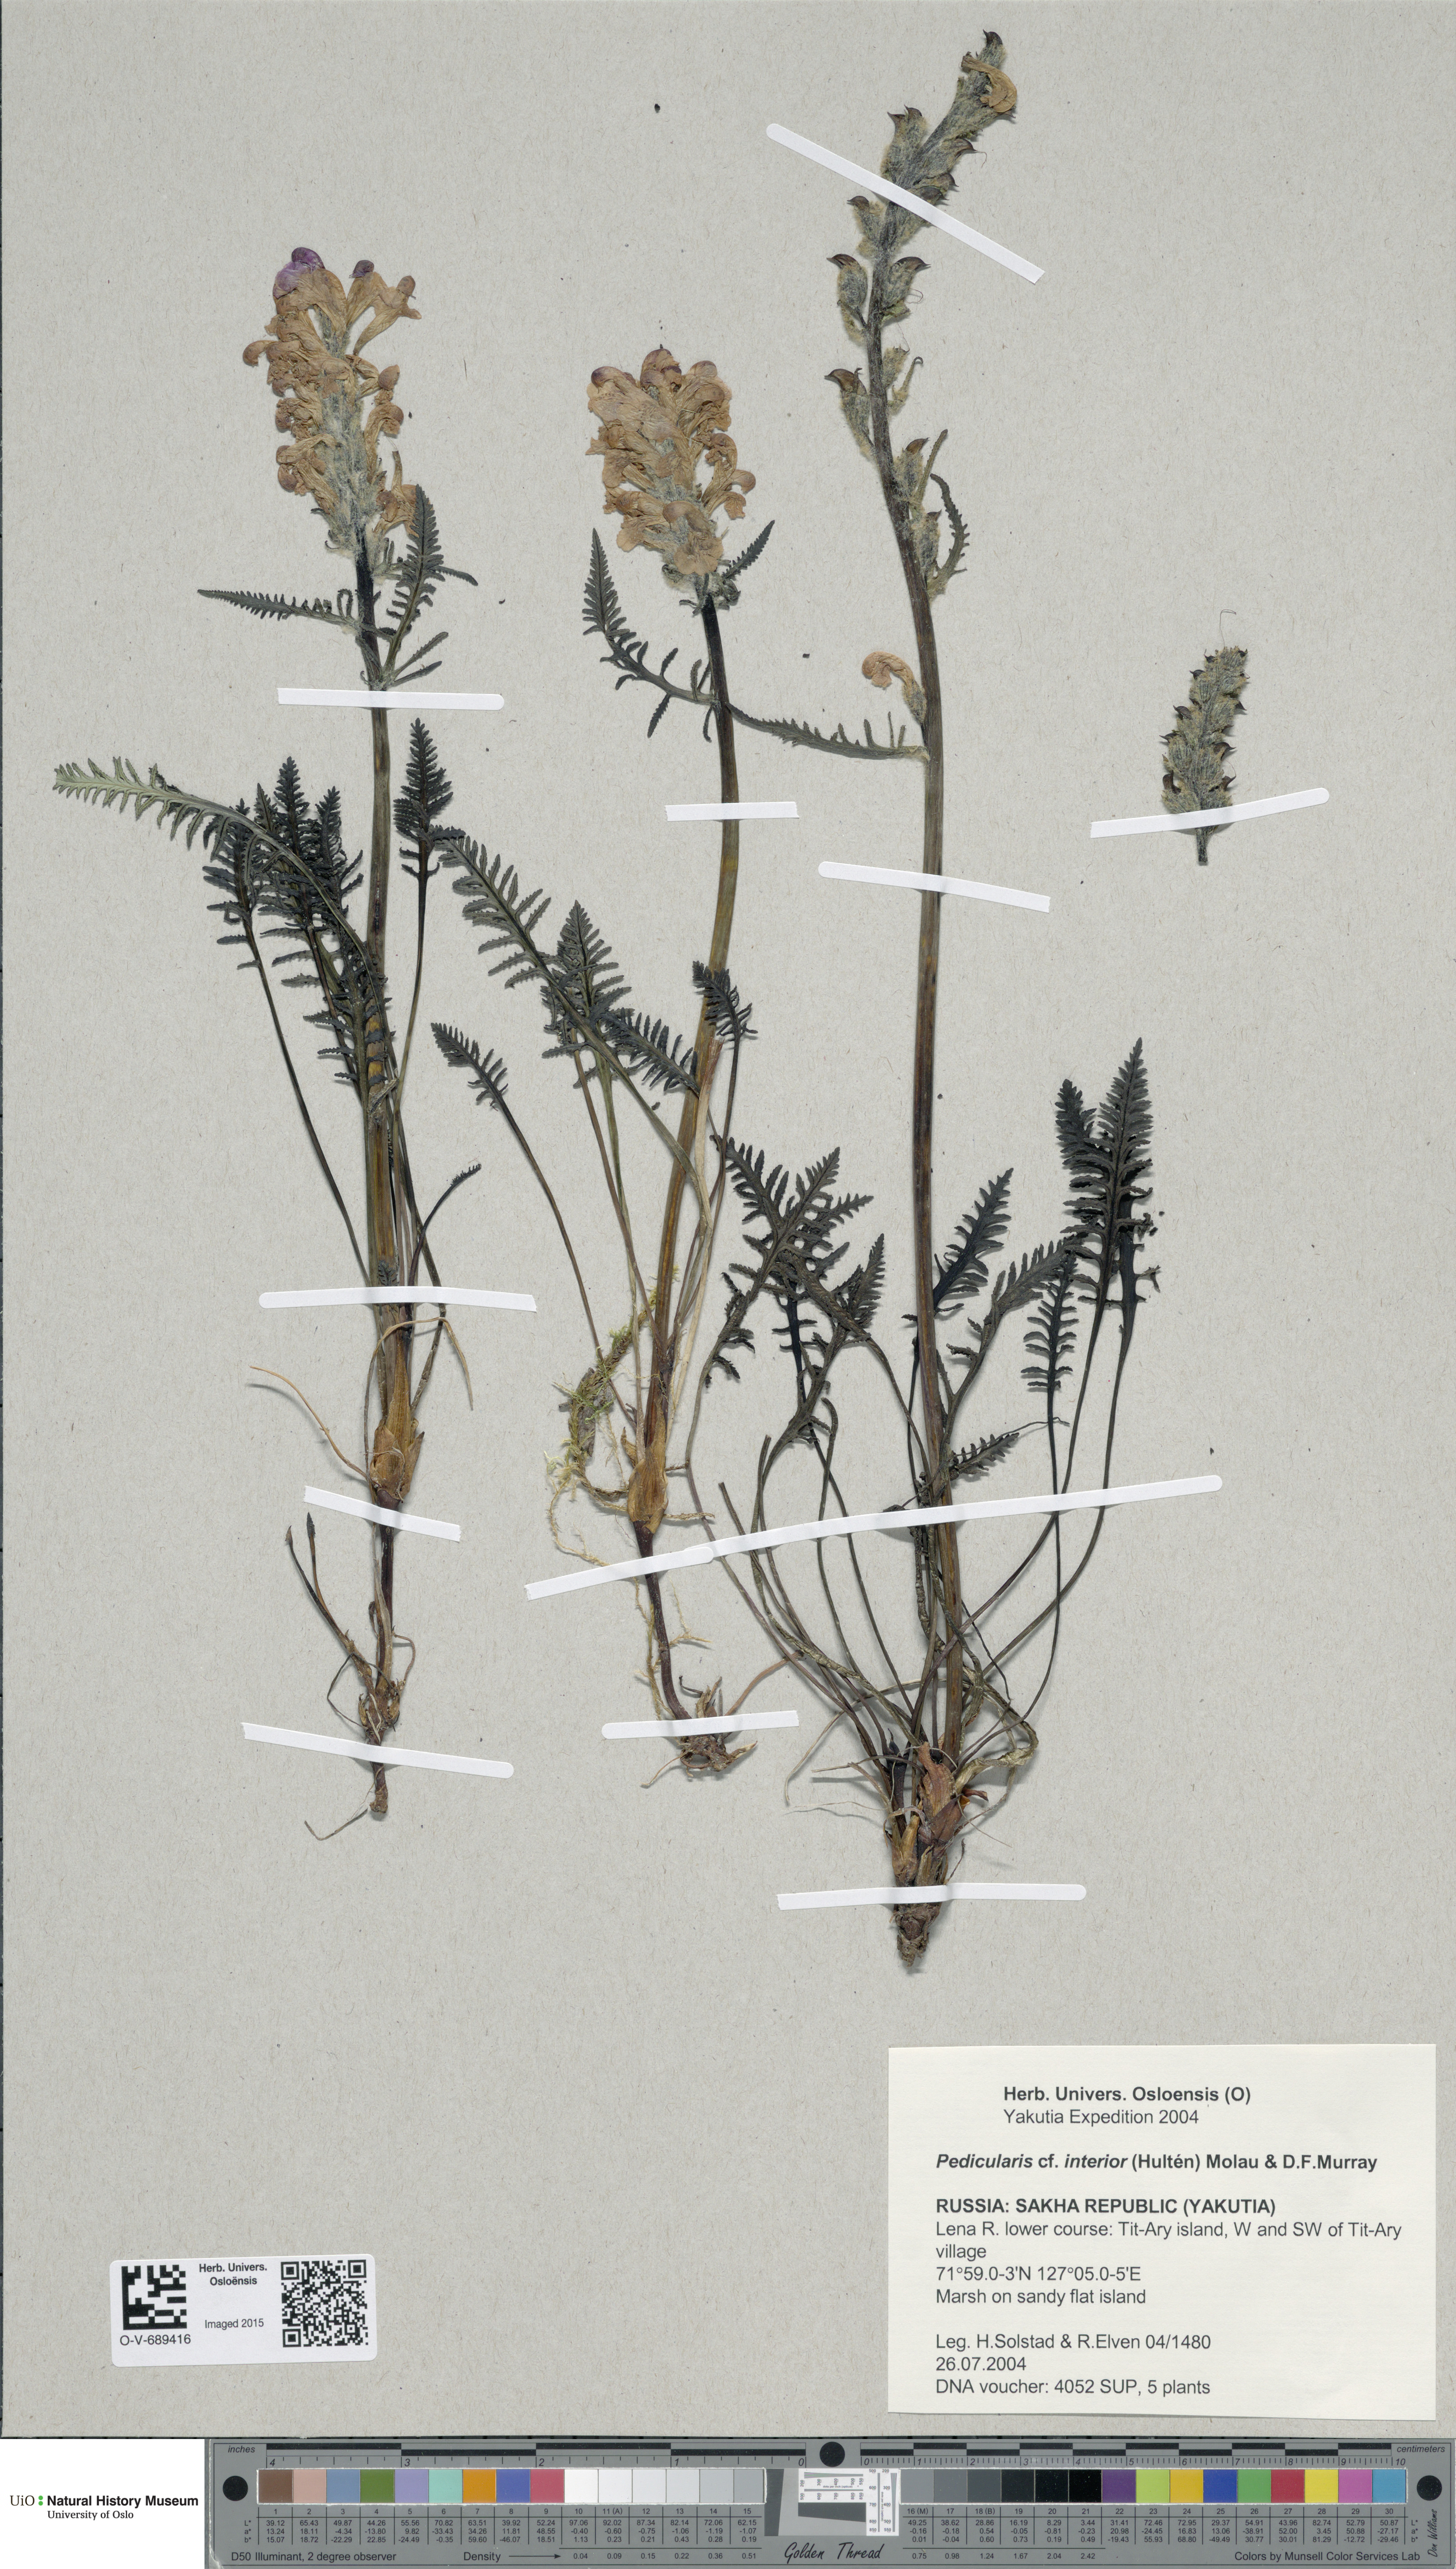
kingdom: Plantae
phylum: Tracheophyta
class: Magnoliopsida
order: Lamiales
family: Orobanchaceae
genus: Pedicularis
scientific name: Pedicularis interior
